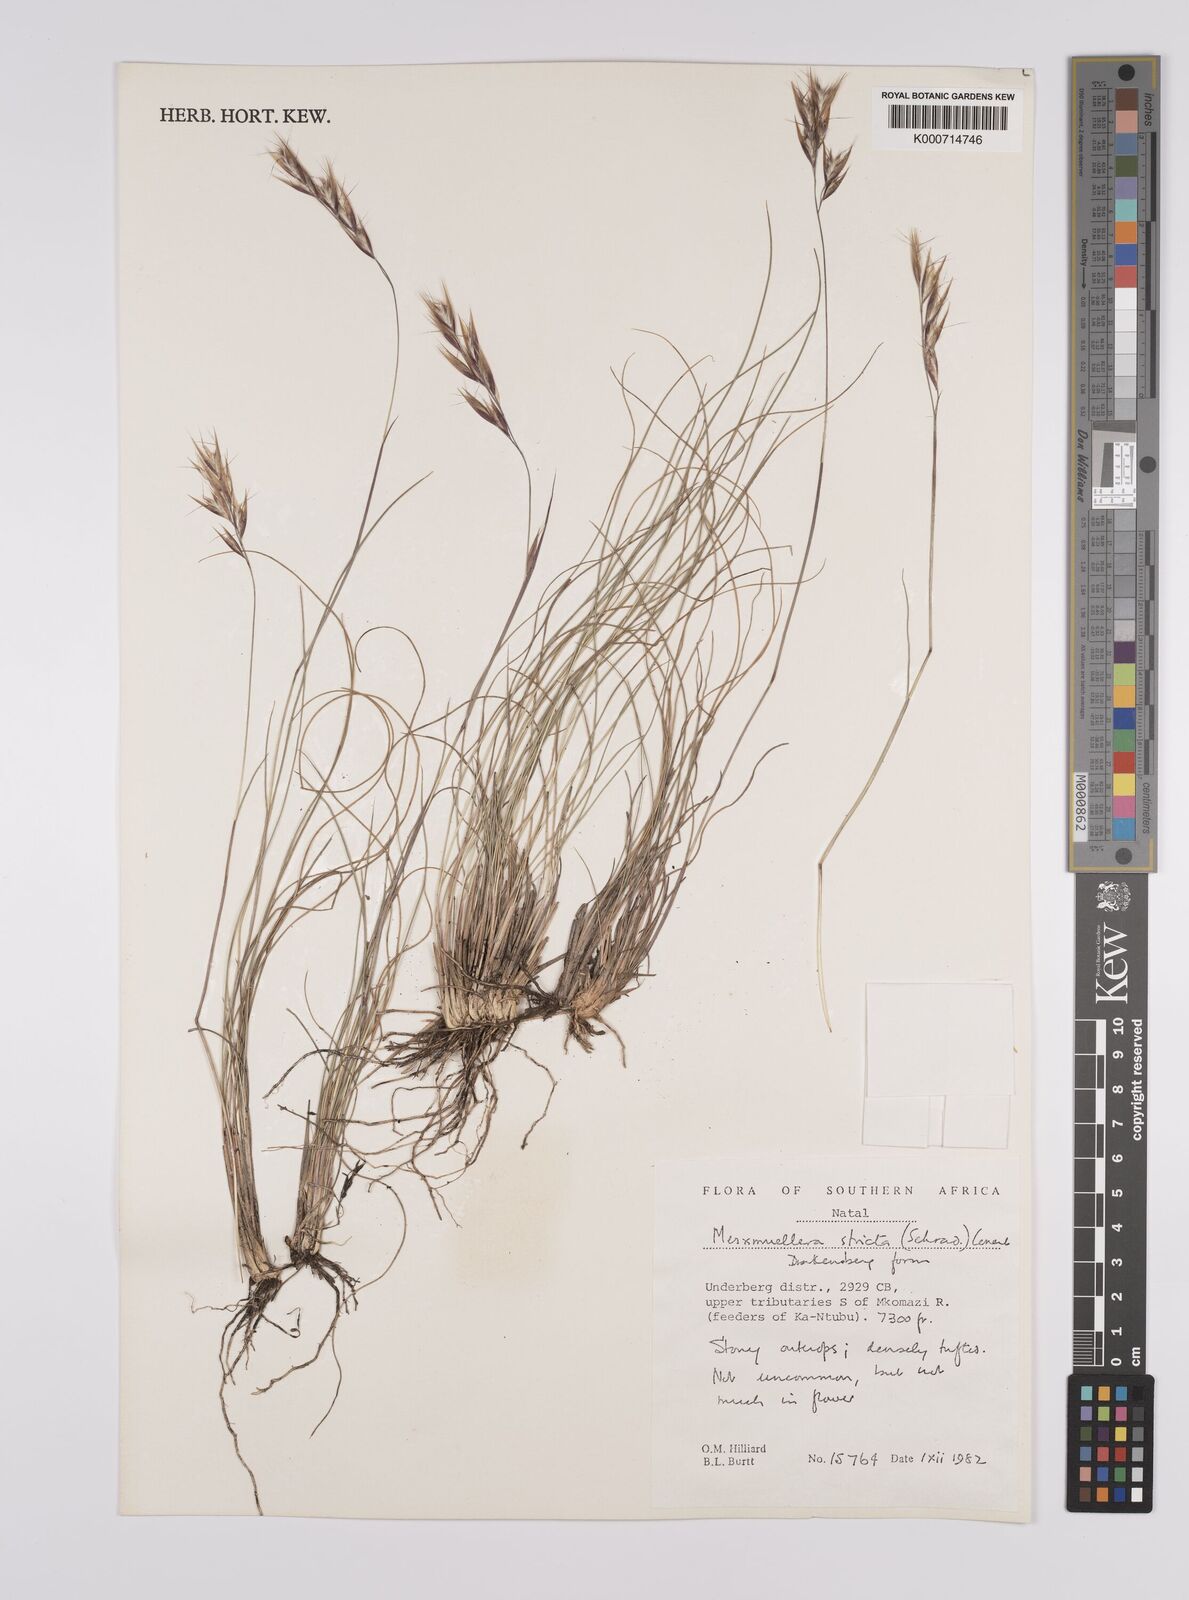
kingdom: Plantae
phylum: Tracheophyta
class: Liliopsida
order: Poales
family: Poaceae
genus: Rytidosperma
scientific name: Rytidosperma
